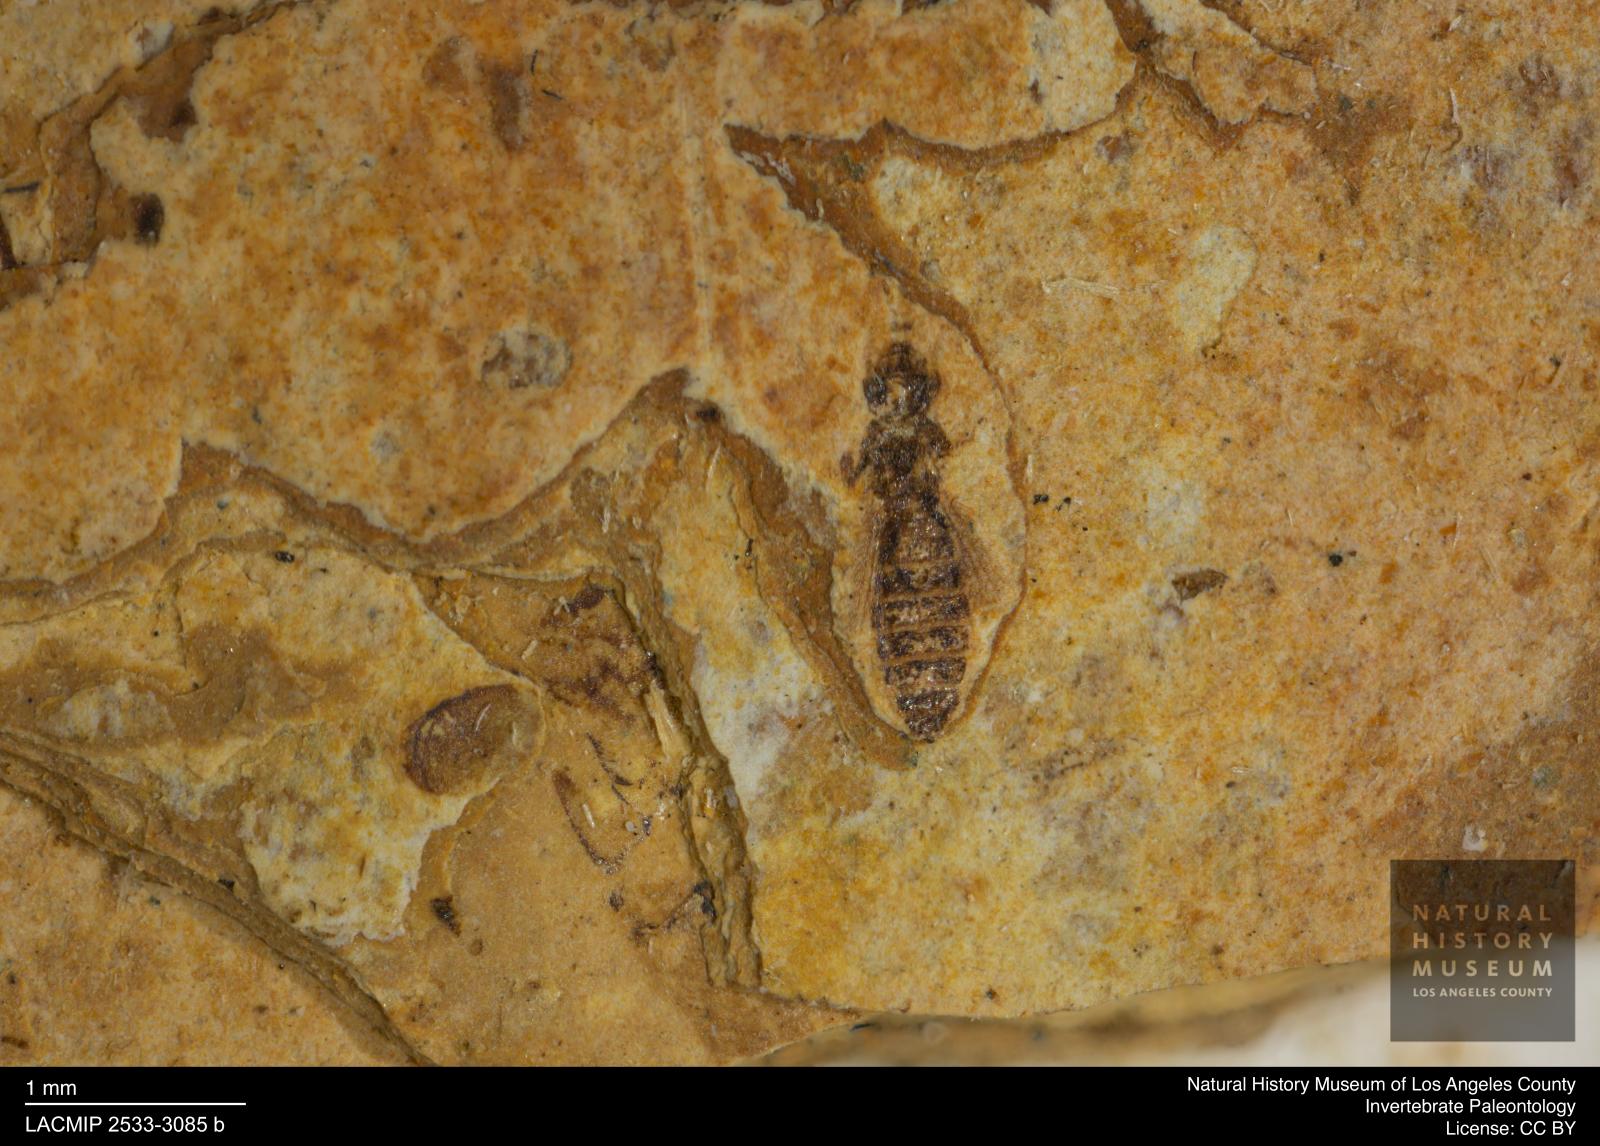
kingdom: Animalia
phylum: Arthropoda
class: Insecta
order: Thysanoptera
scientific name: Thysanoptera
